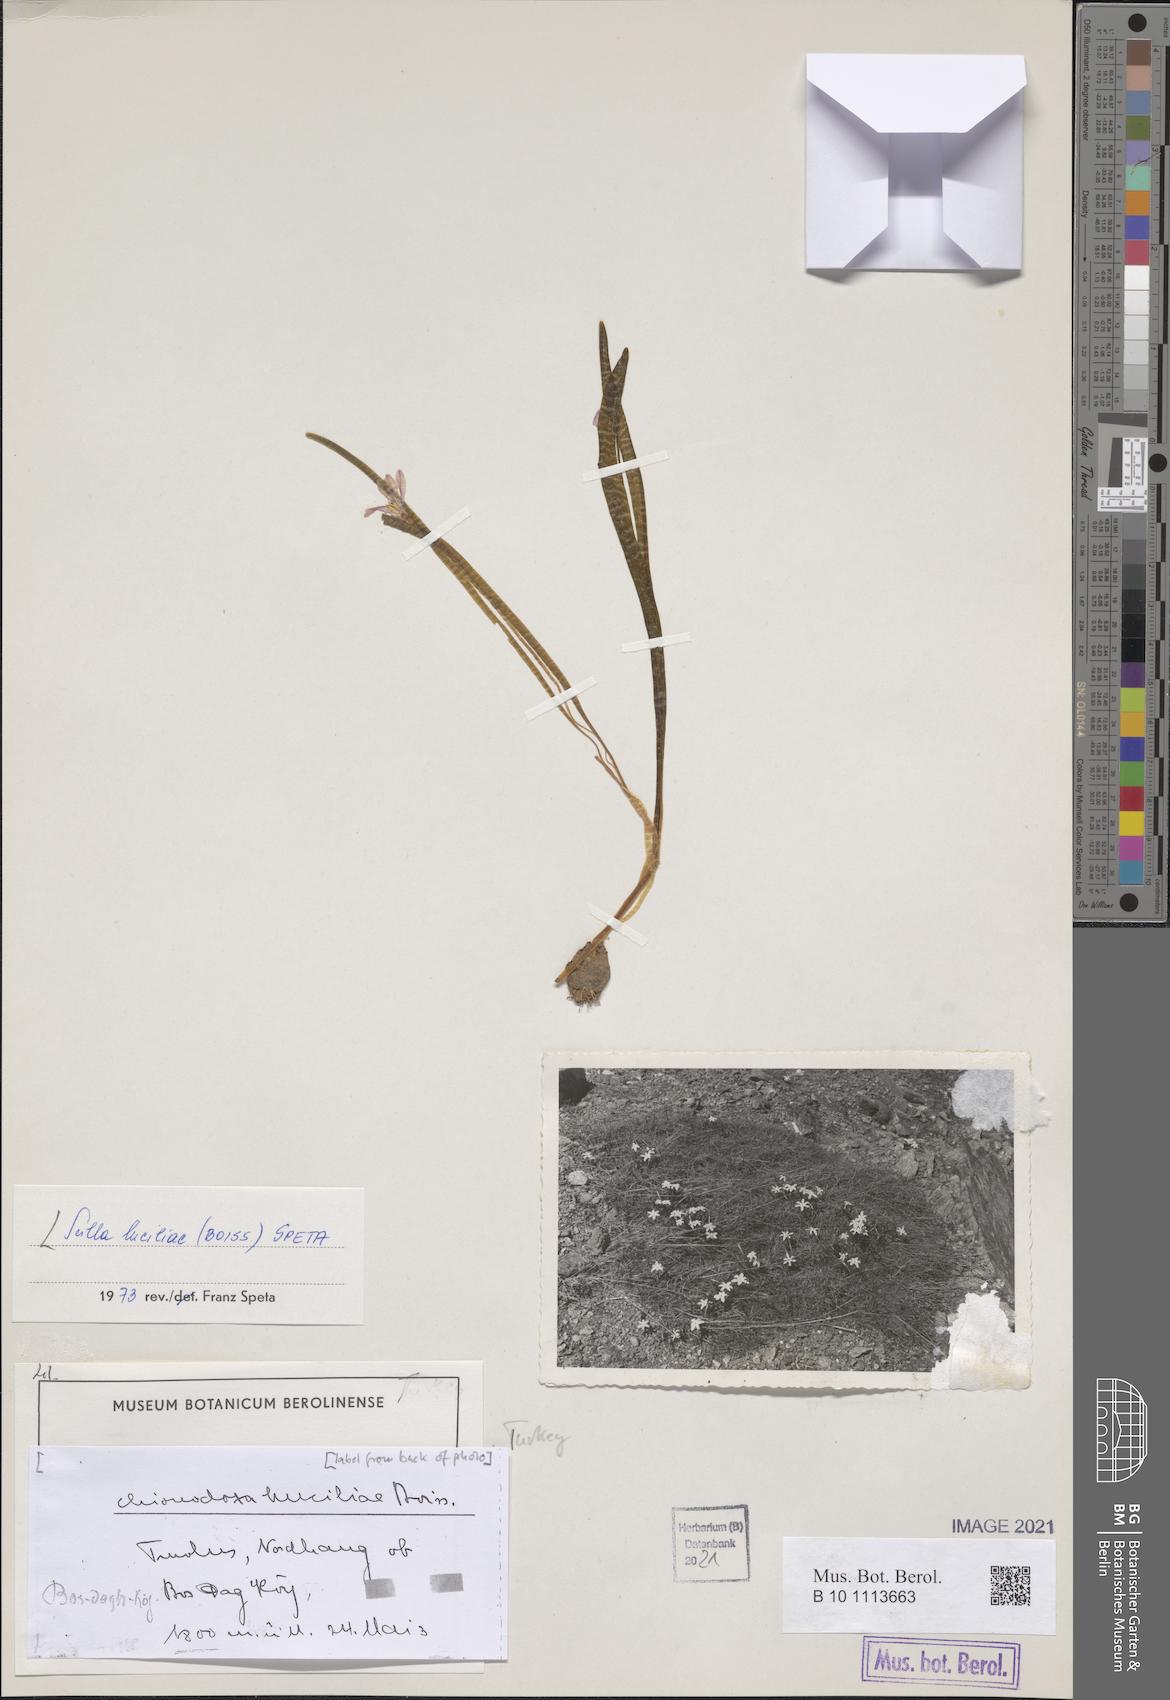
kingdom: Plantae
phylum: Tracheophyta
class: Liliopsida
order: Asparagales
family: Asparagaceae
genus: Scilla
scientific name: Scilla luciliae
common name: Boissier's glory-of-the-snow
